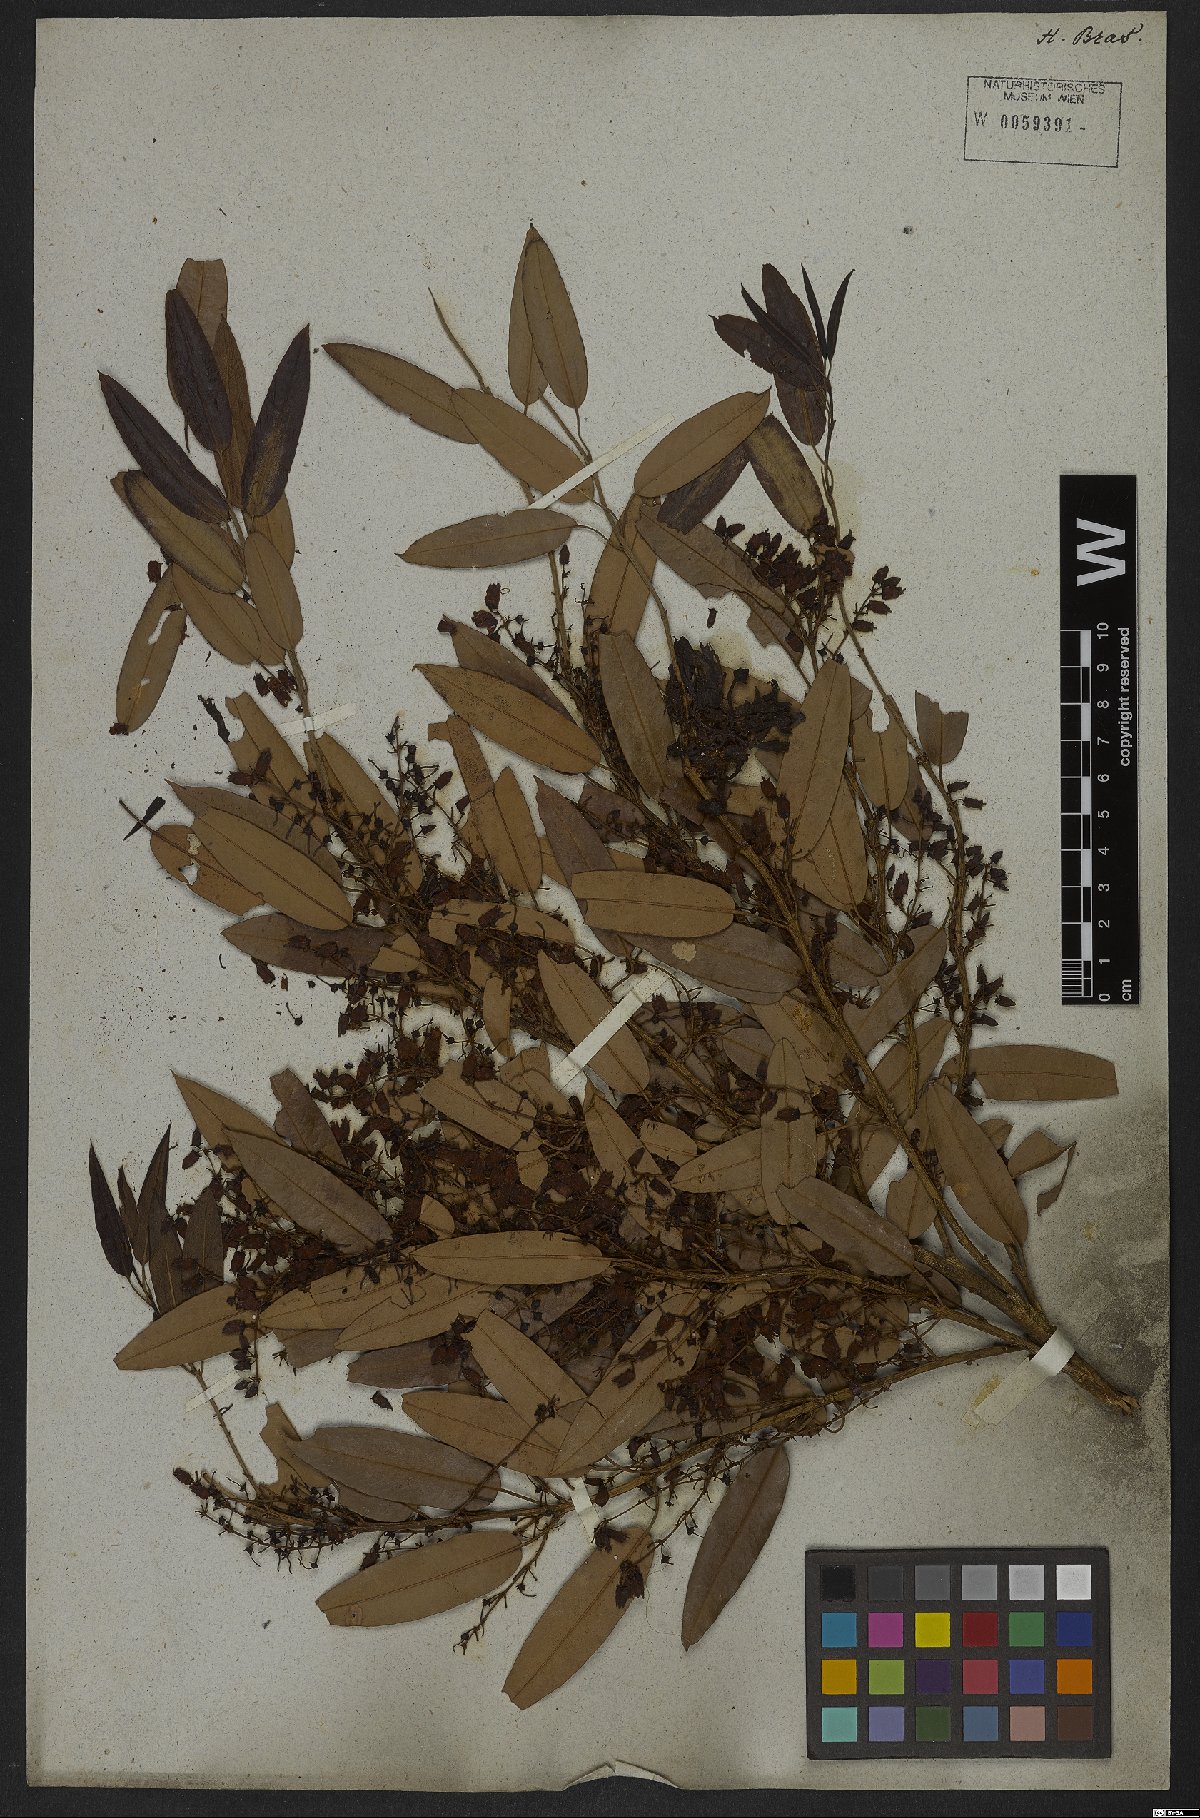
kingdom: Plantae
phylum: Tracheophyta
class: Magnoliopsida
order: Ericales
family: Ericaceae
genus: Agarista
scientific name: Agarista eucalyptoides
